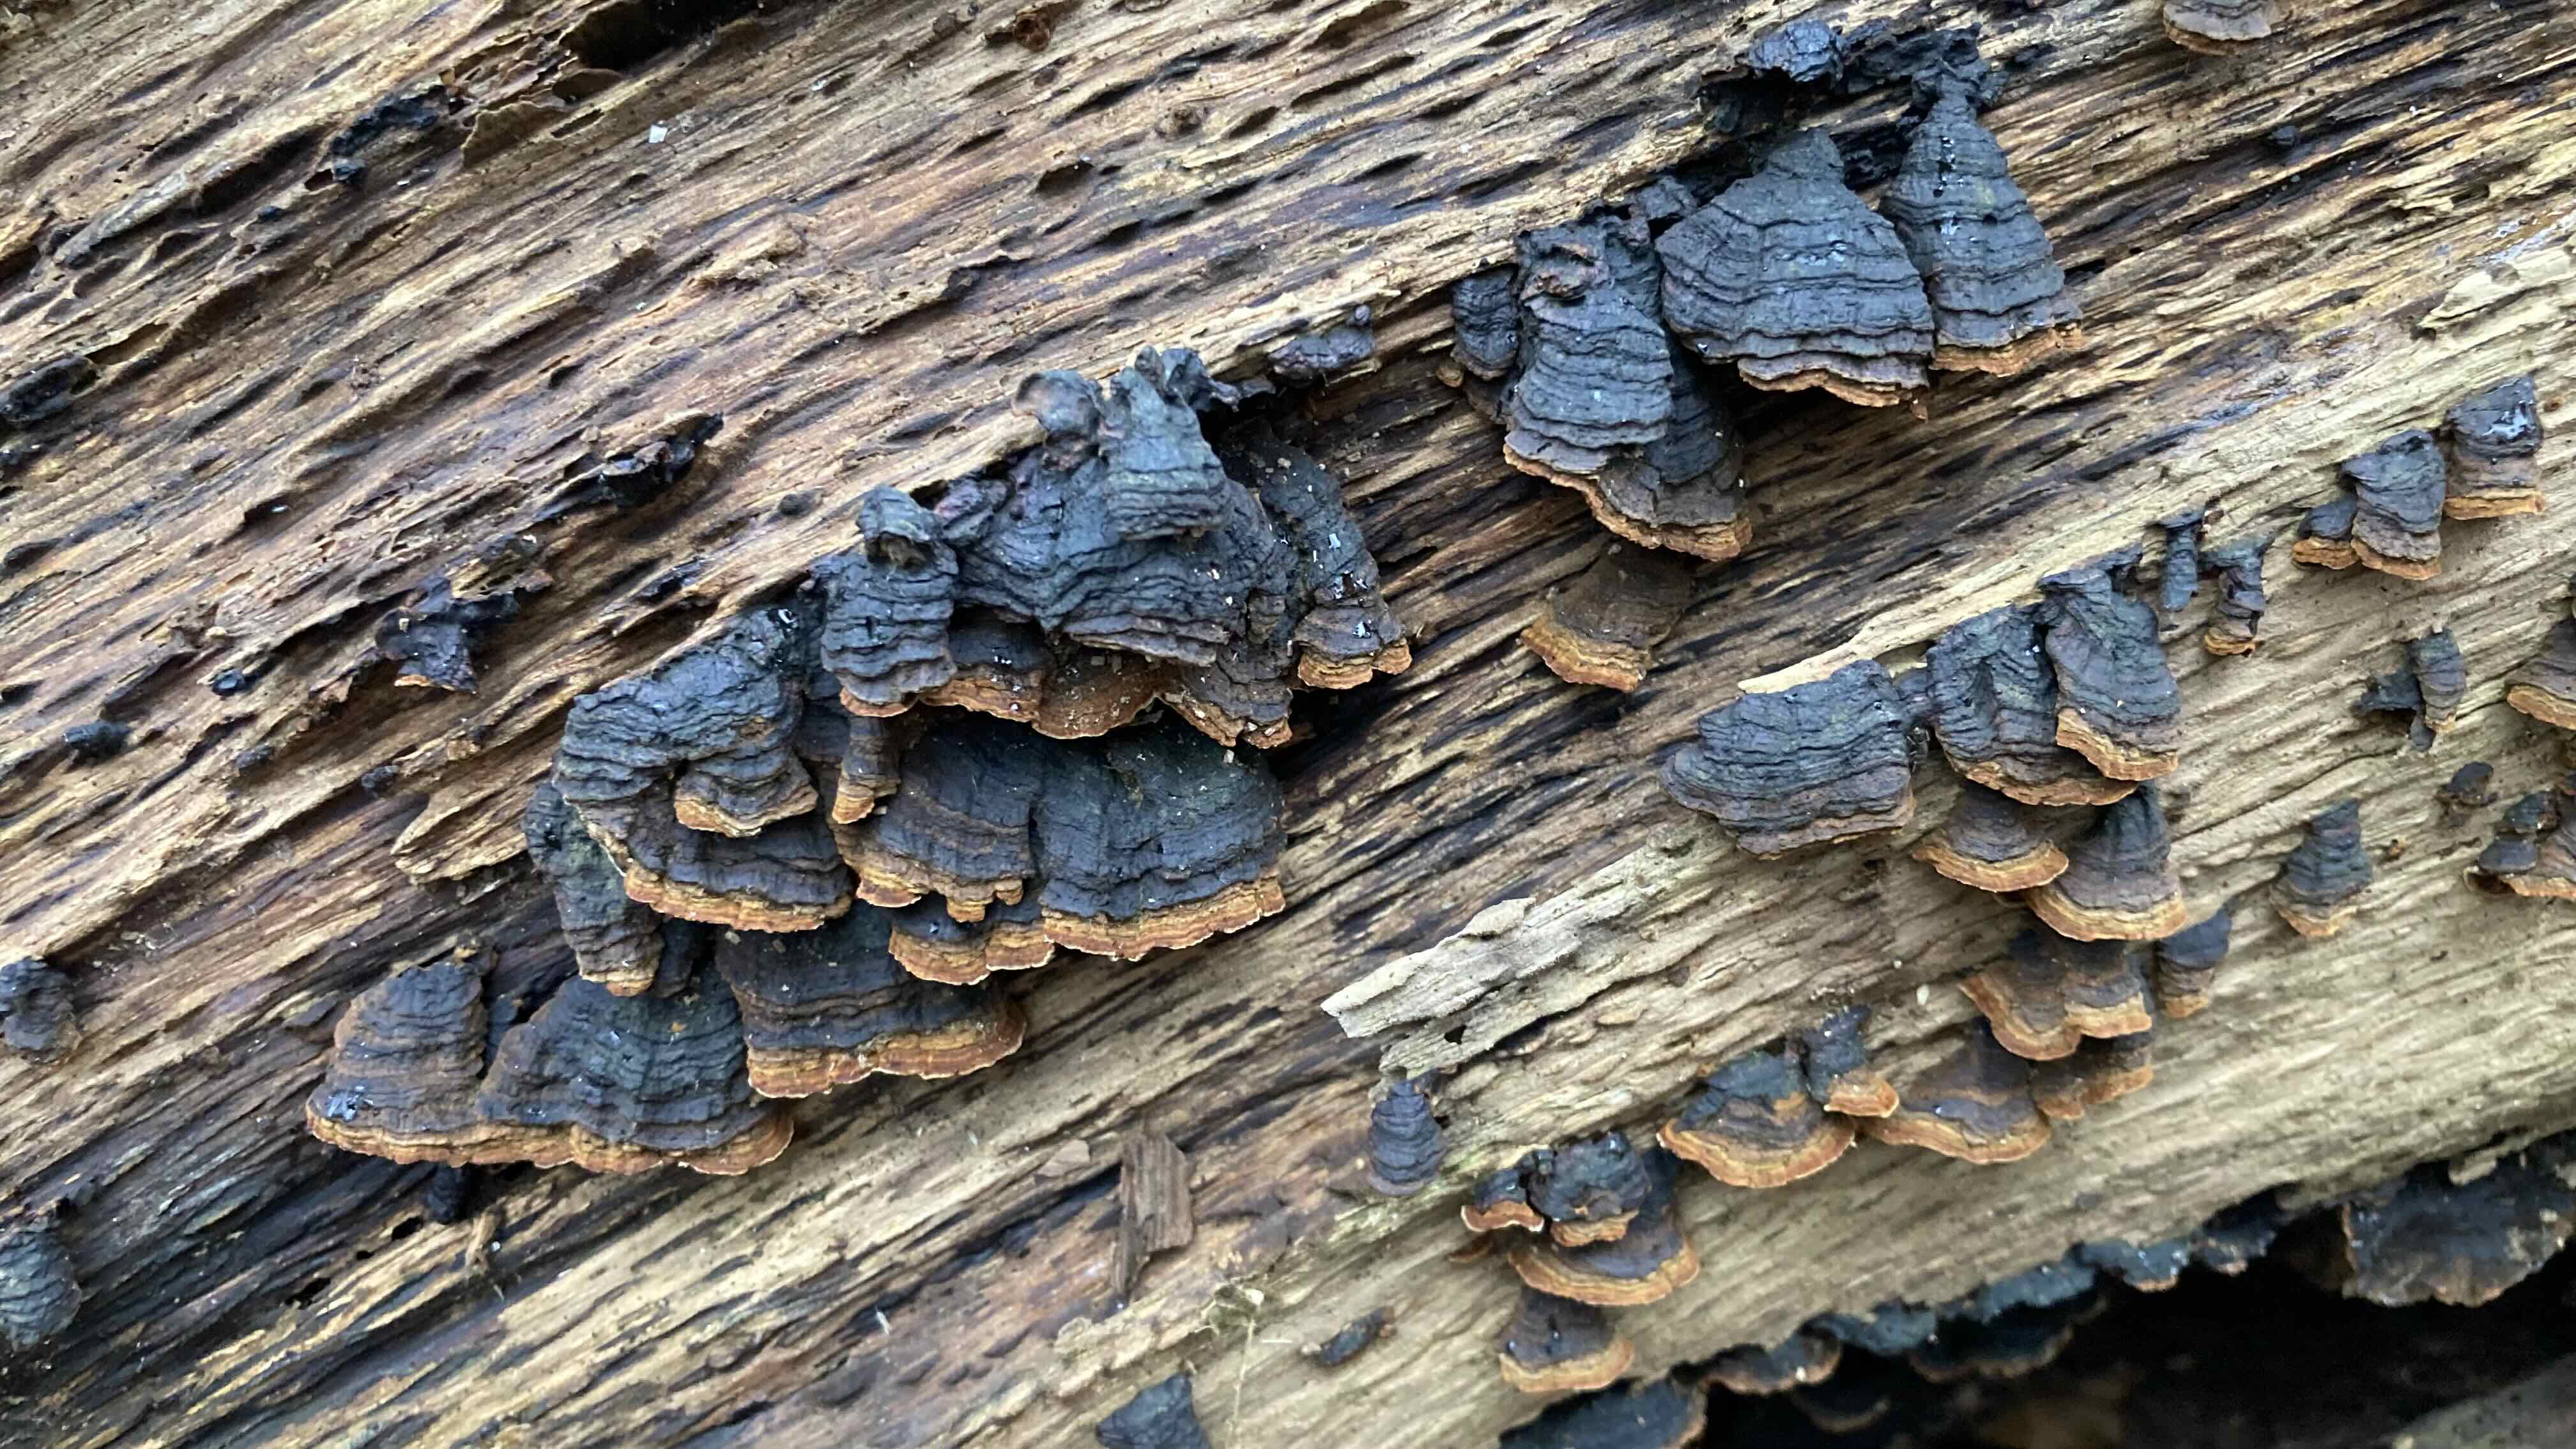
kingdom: Fungi
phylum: Basidiomycota
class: Agaricomycetes
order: Hymenochaetales
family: Hymenochaetaceae
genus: Hymenochaete
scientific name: Hymenochaete rubiginosa
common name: stiv ruslædersvamp
